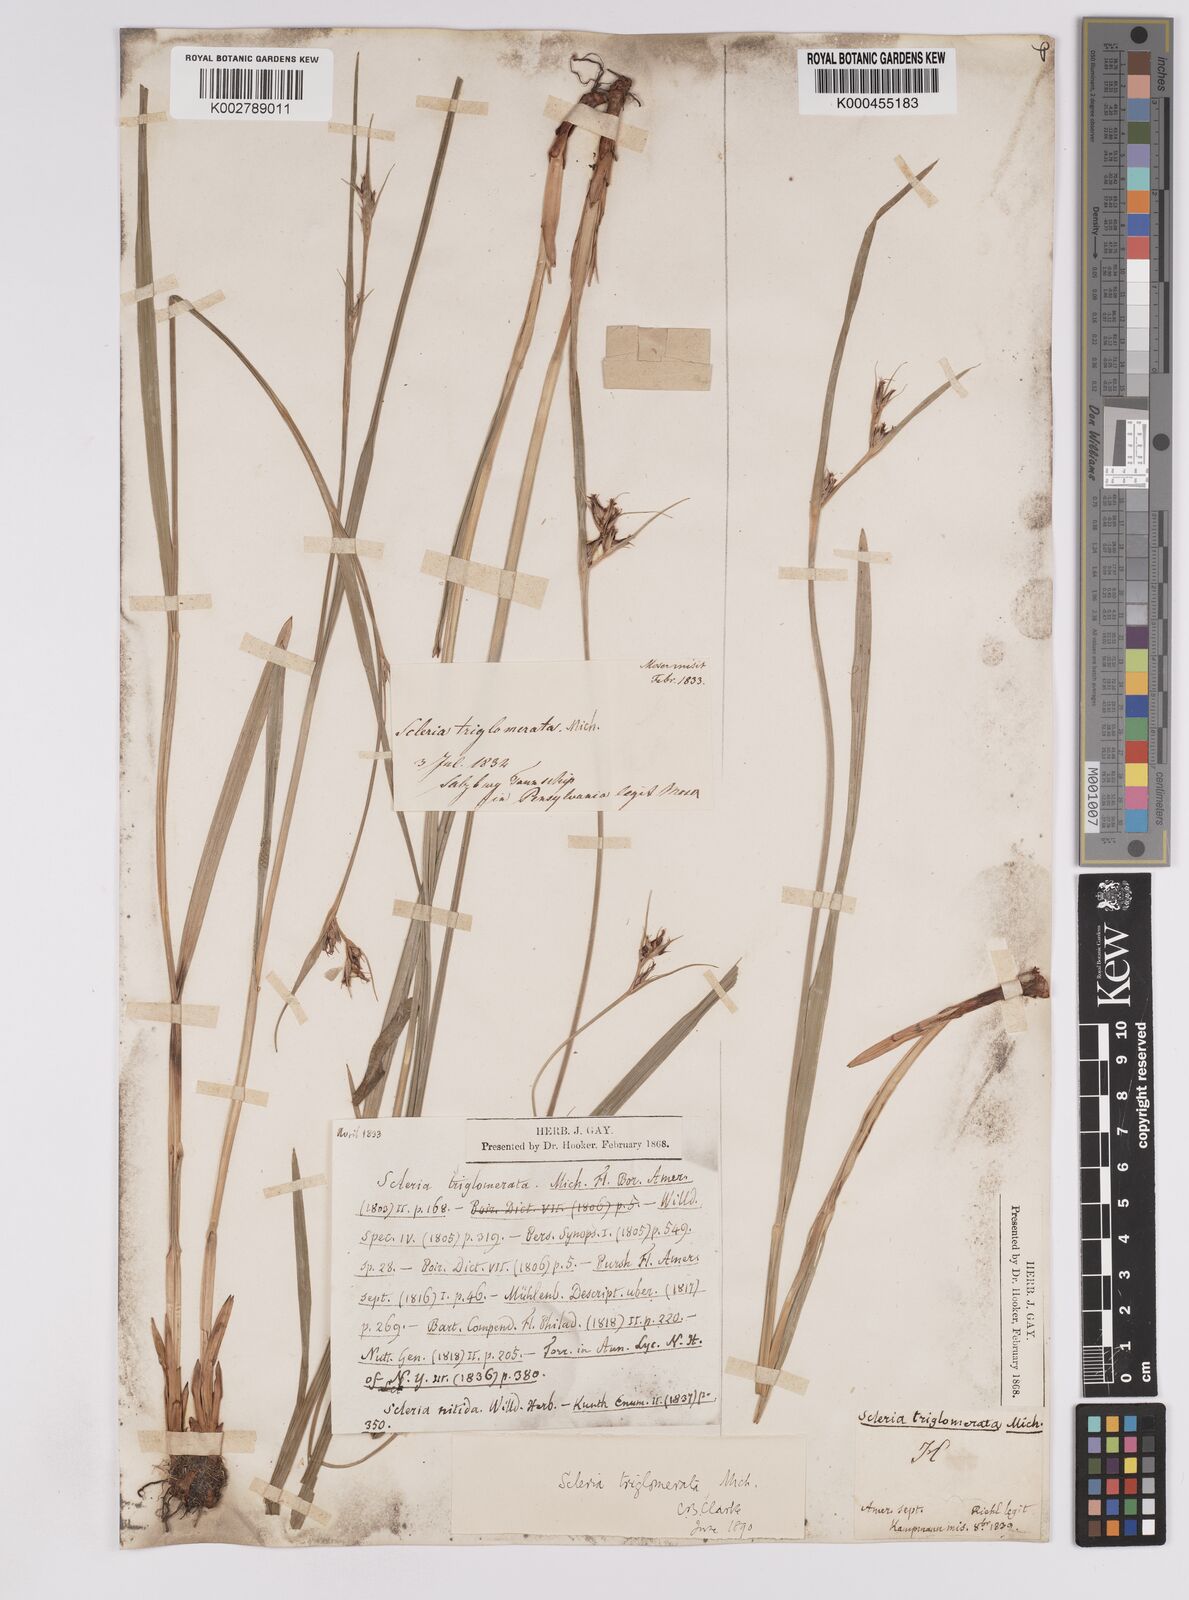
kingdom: Plantae
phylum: Tracheophyta
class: Liliopsida
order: Poales
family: Cyperaceae
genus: Scleria
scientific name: Scleria triglomerata
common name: Whip nutrush
